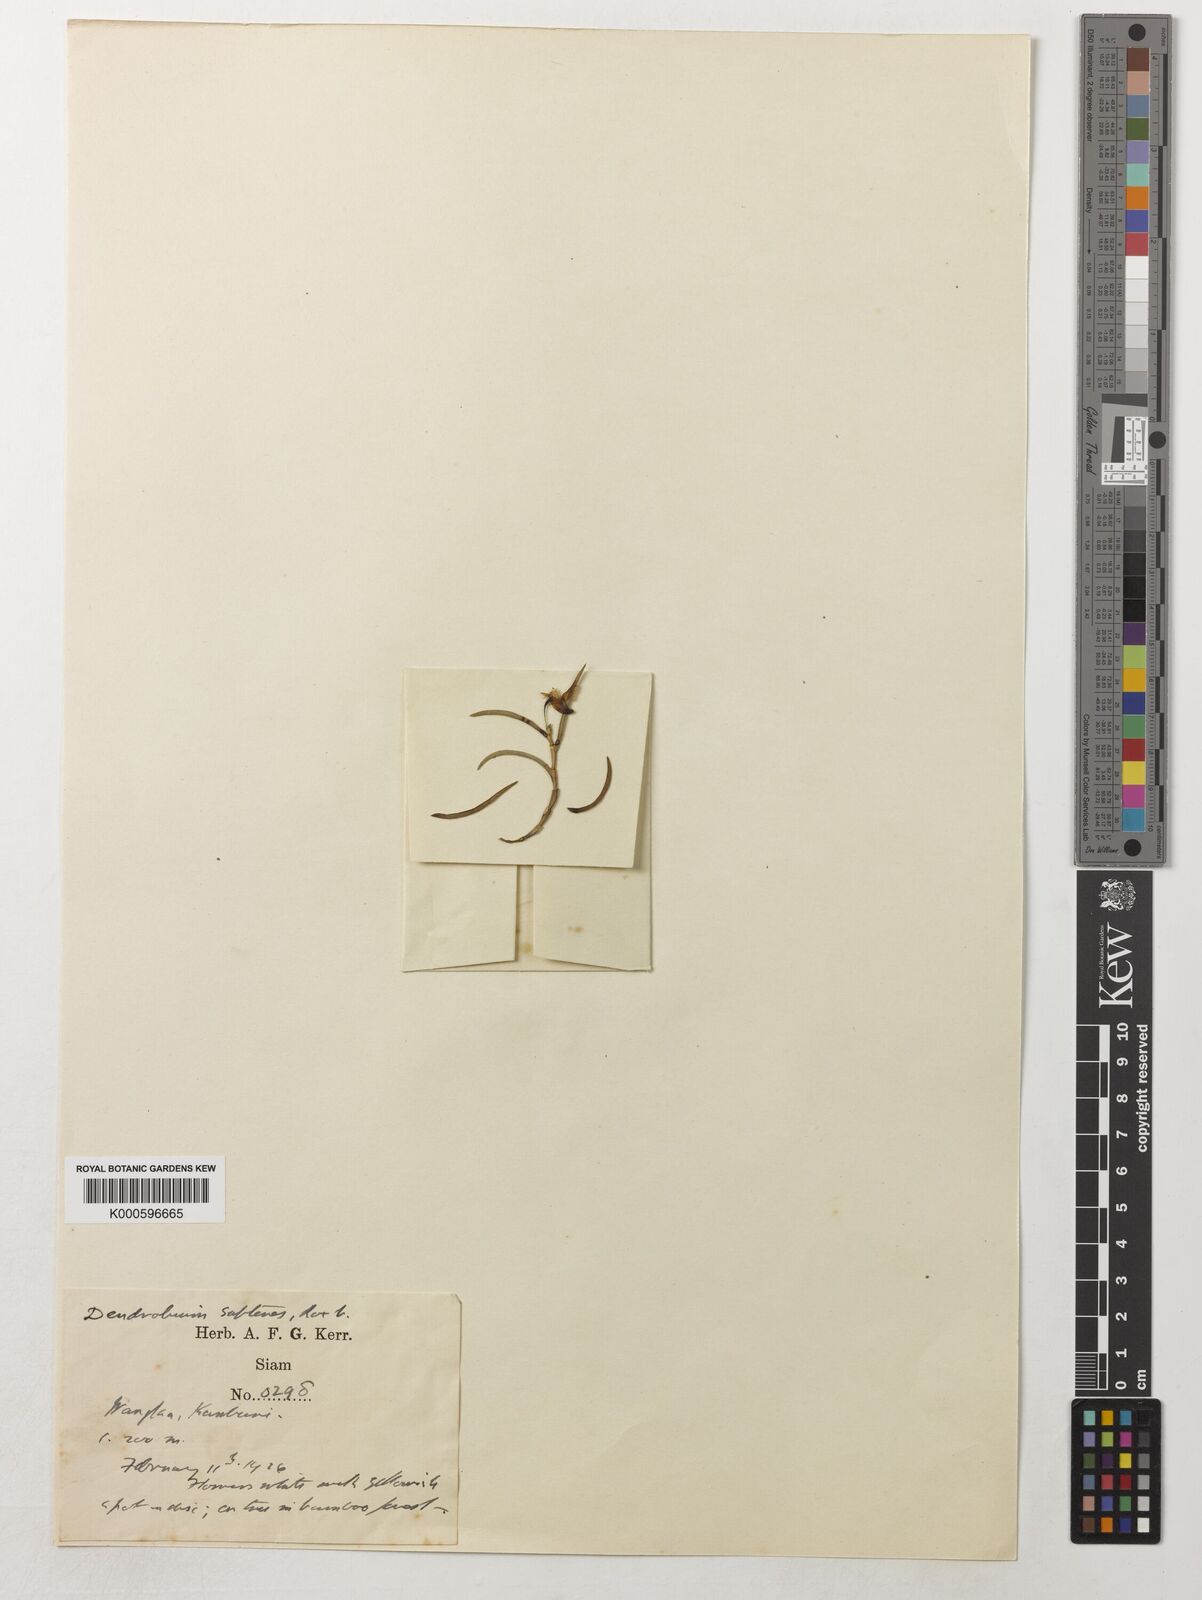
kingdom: Plantae
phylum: Tracheophyta
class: Liliopsida
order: Asparagales
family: Orchidaceae
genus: Dendrobium
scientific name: Dendrobium acerosum
